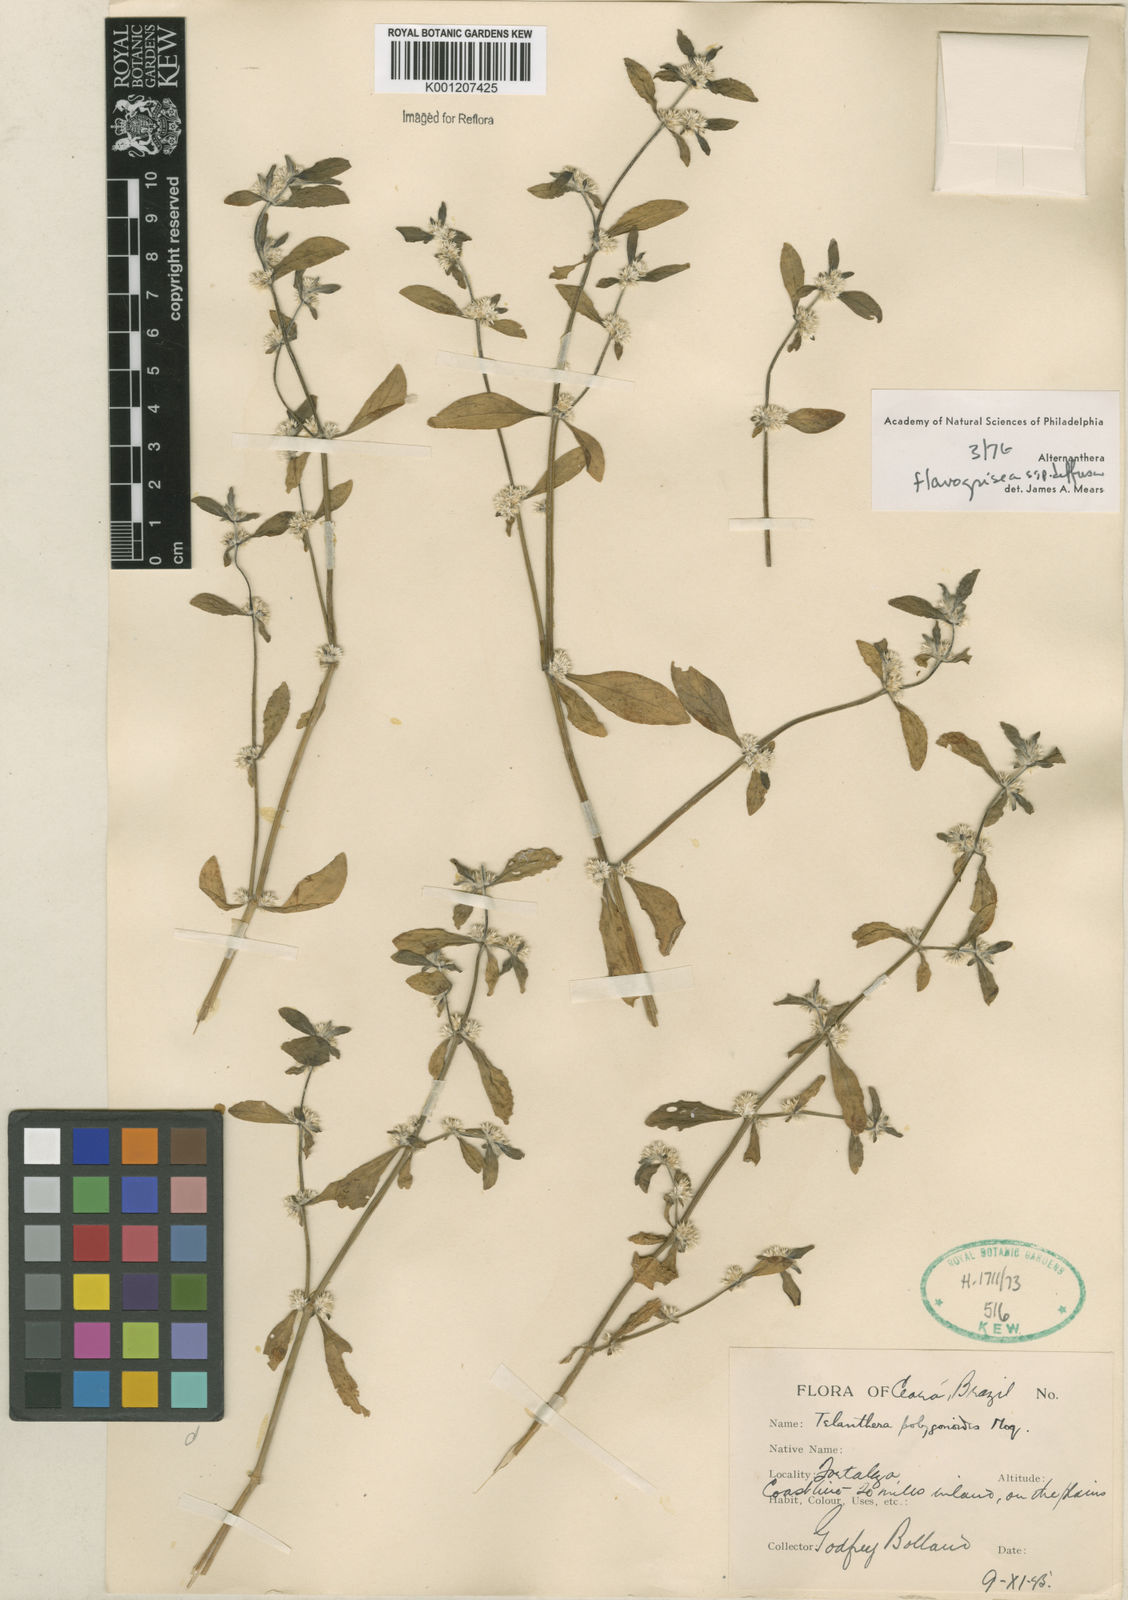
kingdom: Plantae
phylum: Tracheophyta
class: Magnoliopsida
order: Caryophyllales
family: Amaranthaceae
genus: Alternanthera
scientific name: Alternanthera halimifolia
